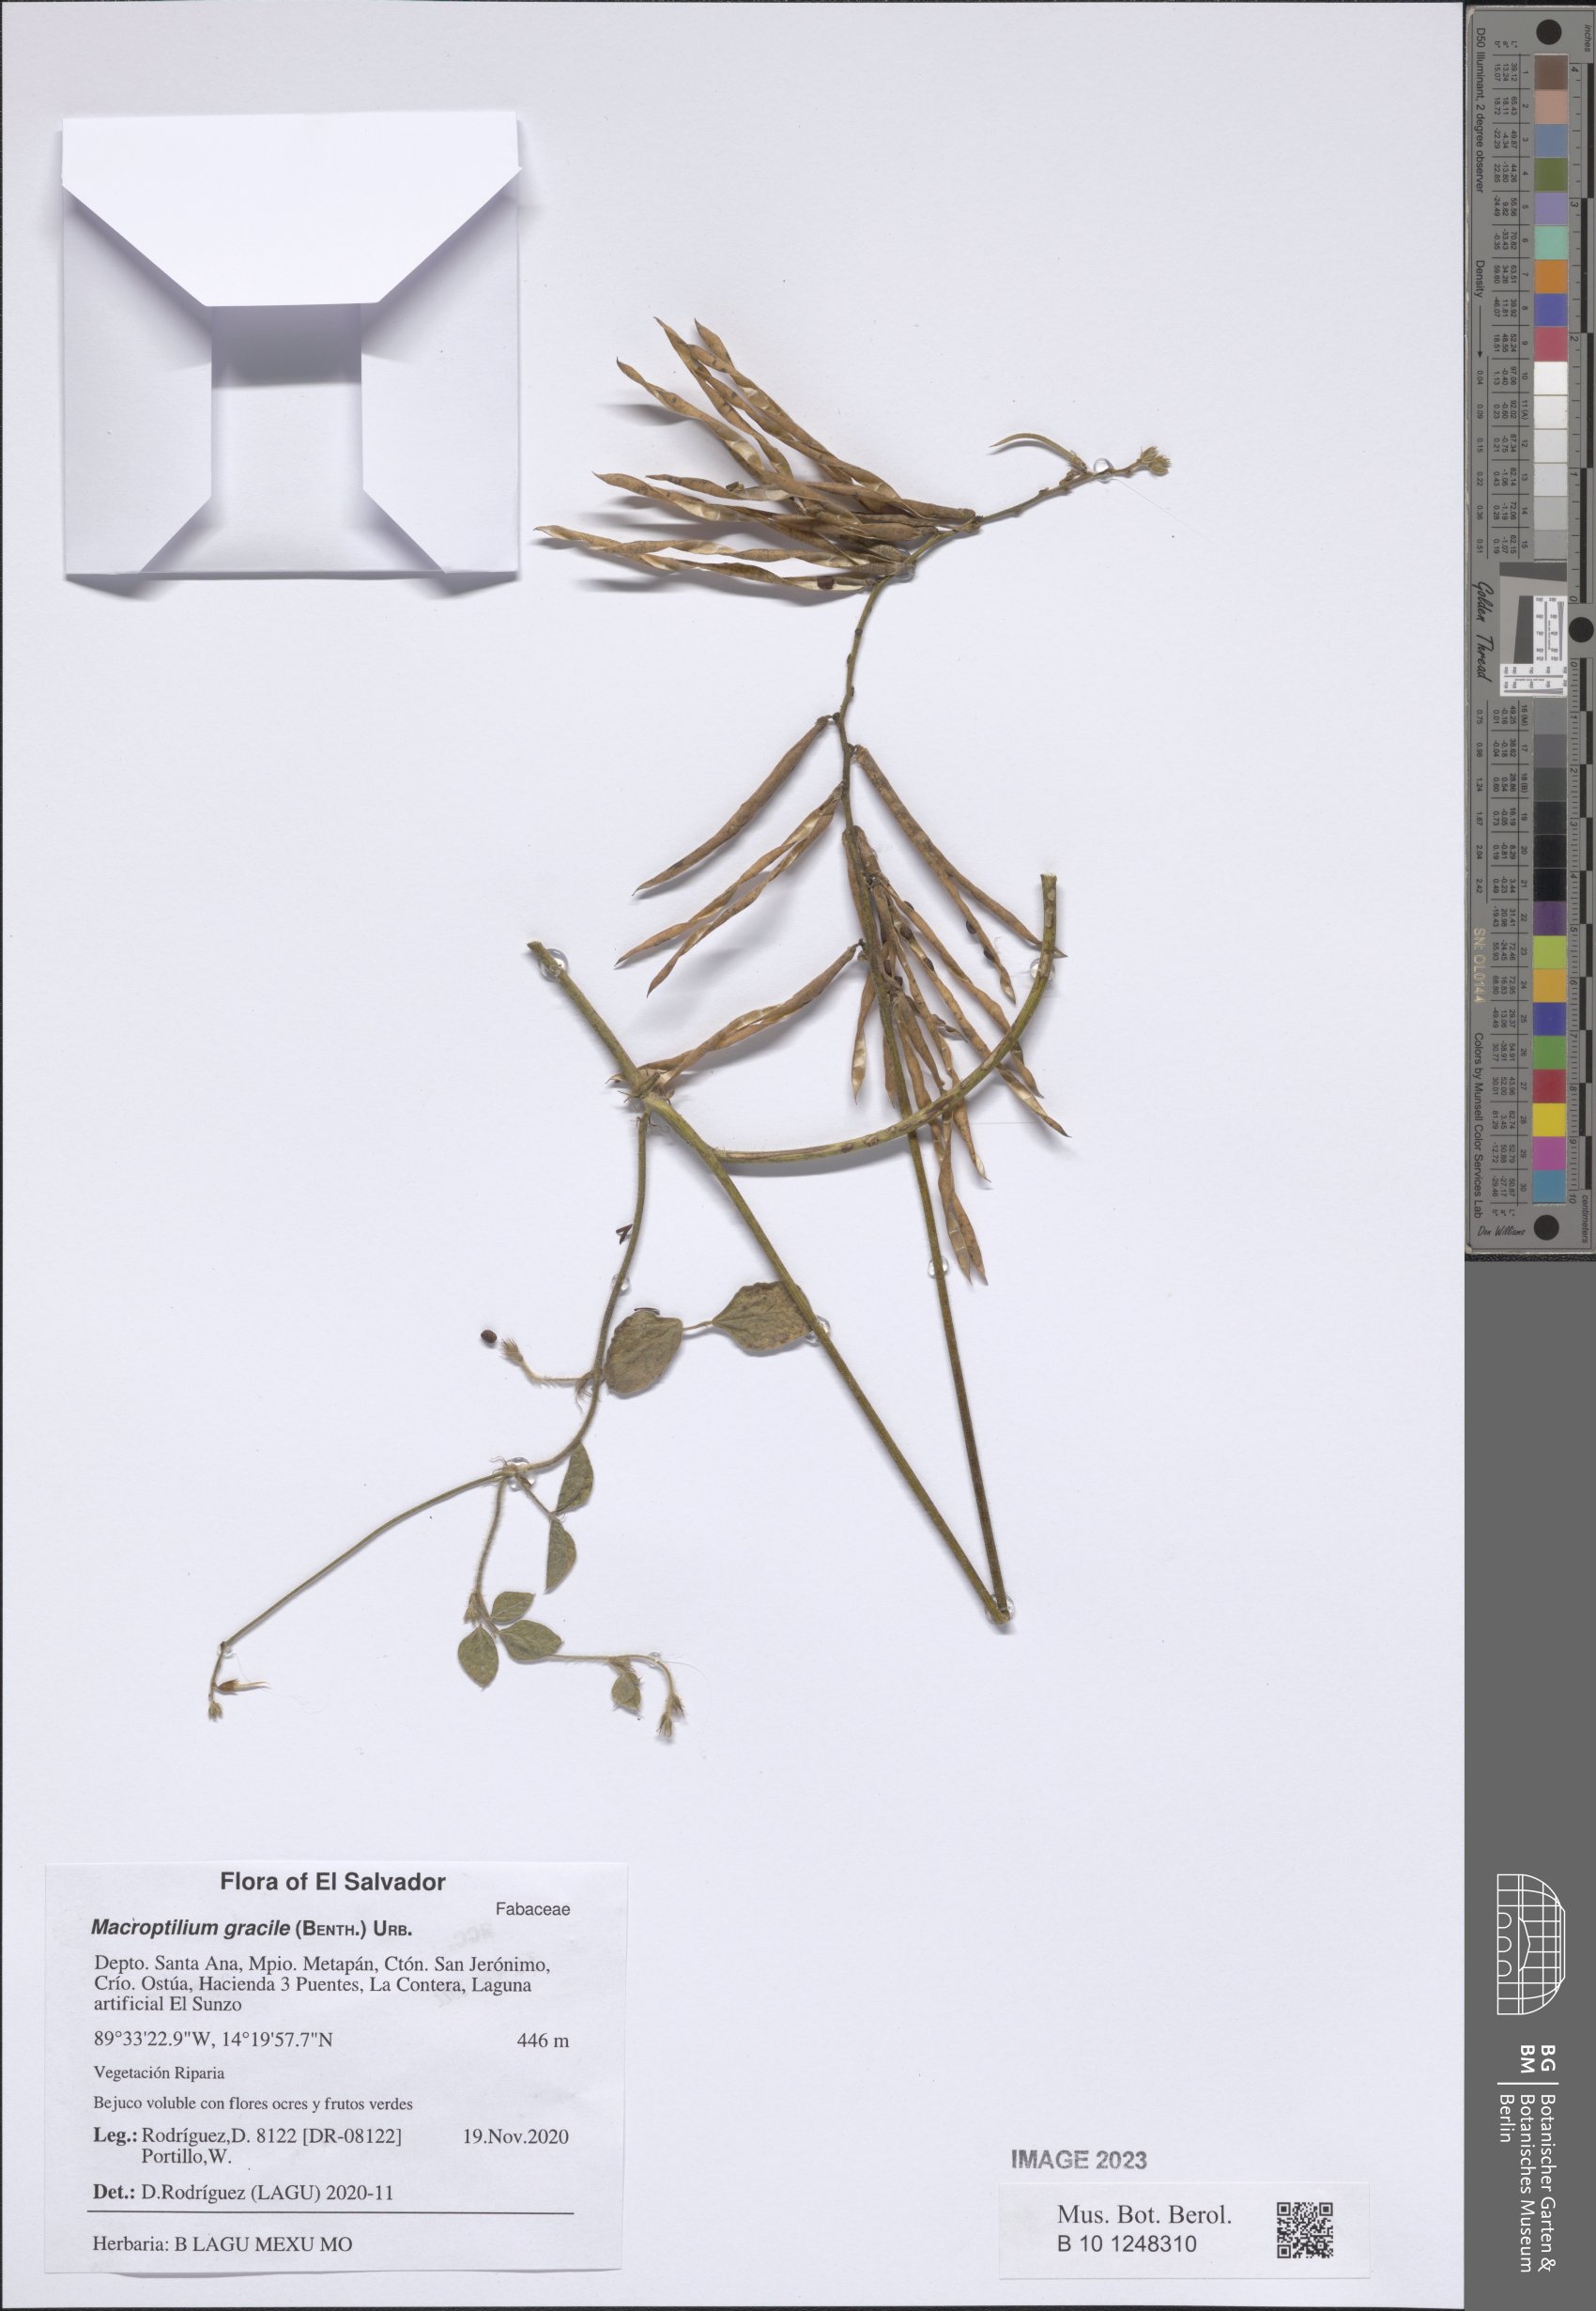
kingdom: Plantae
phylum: Tracheophyta
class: Magnoliopsida
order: Fabales
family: Fabaceae
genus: Macroptilium
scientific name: Macroptilium gracile
